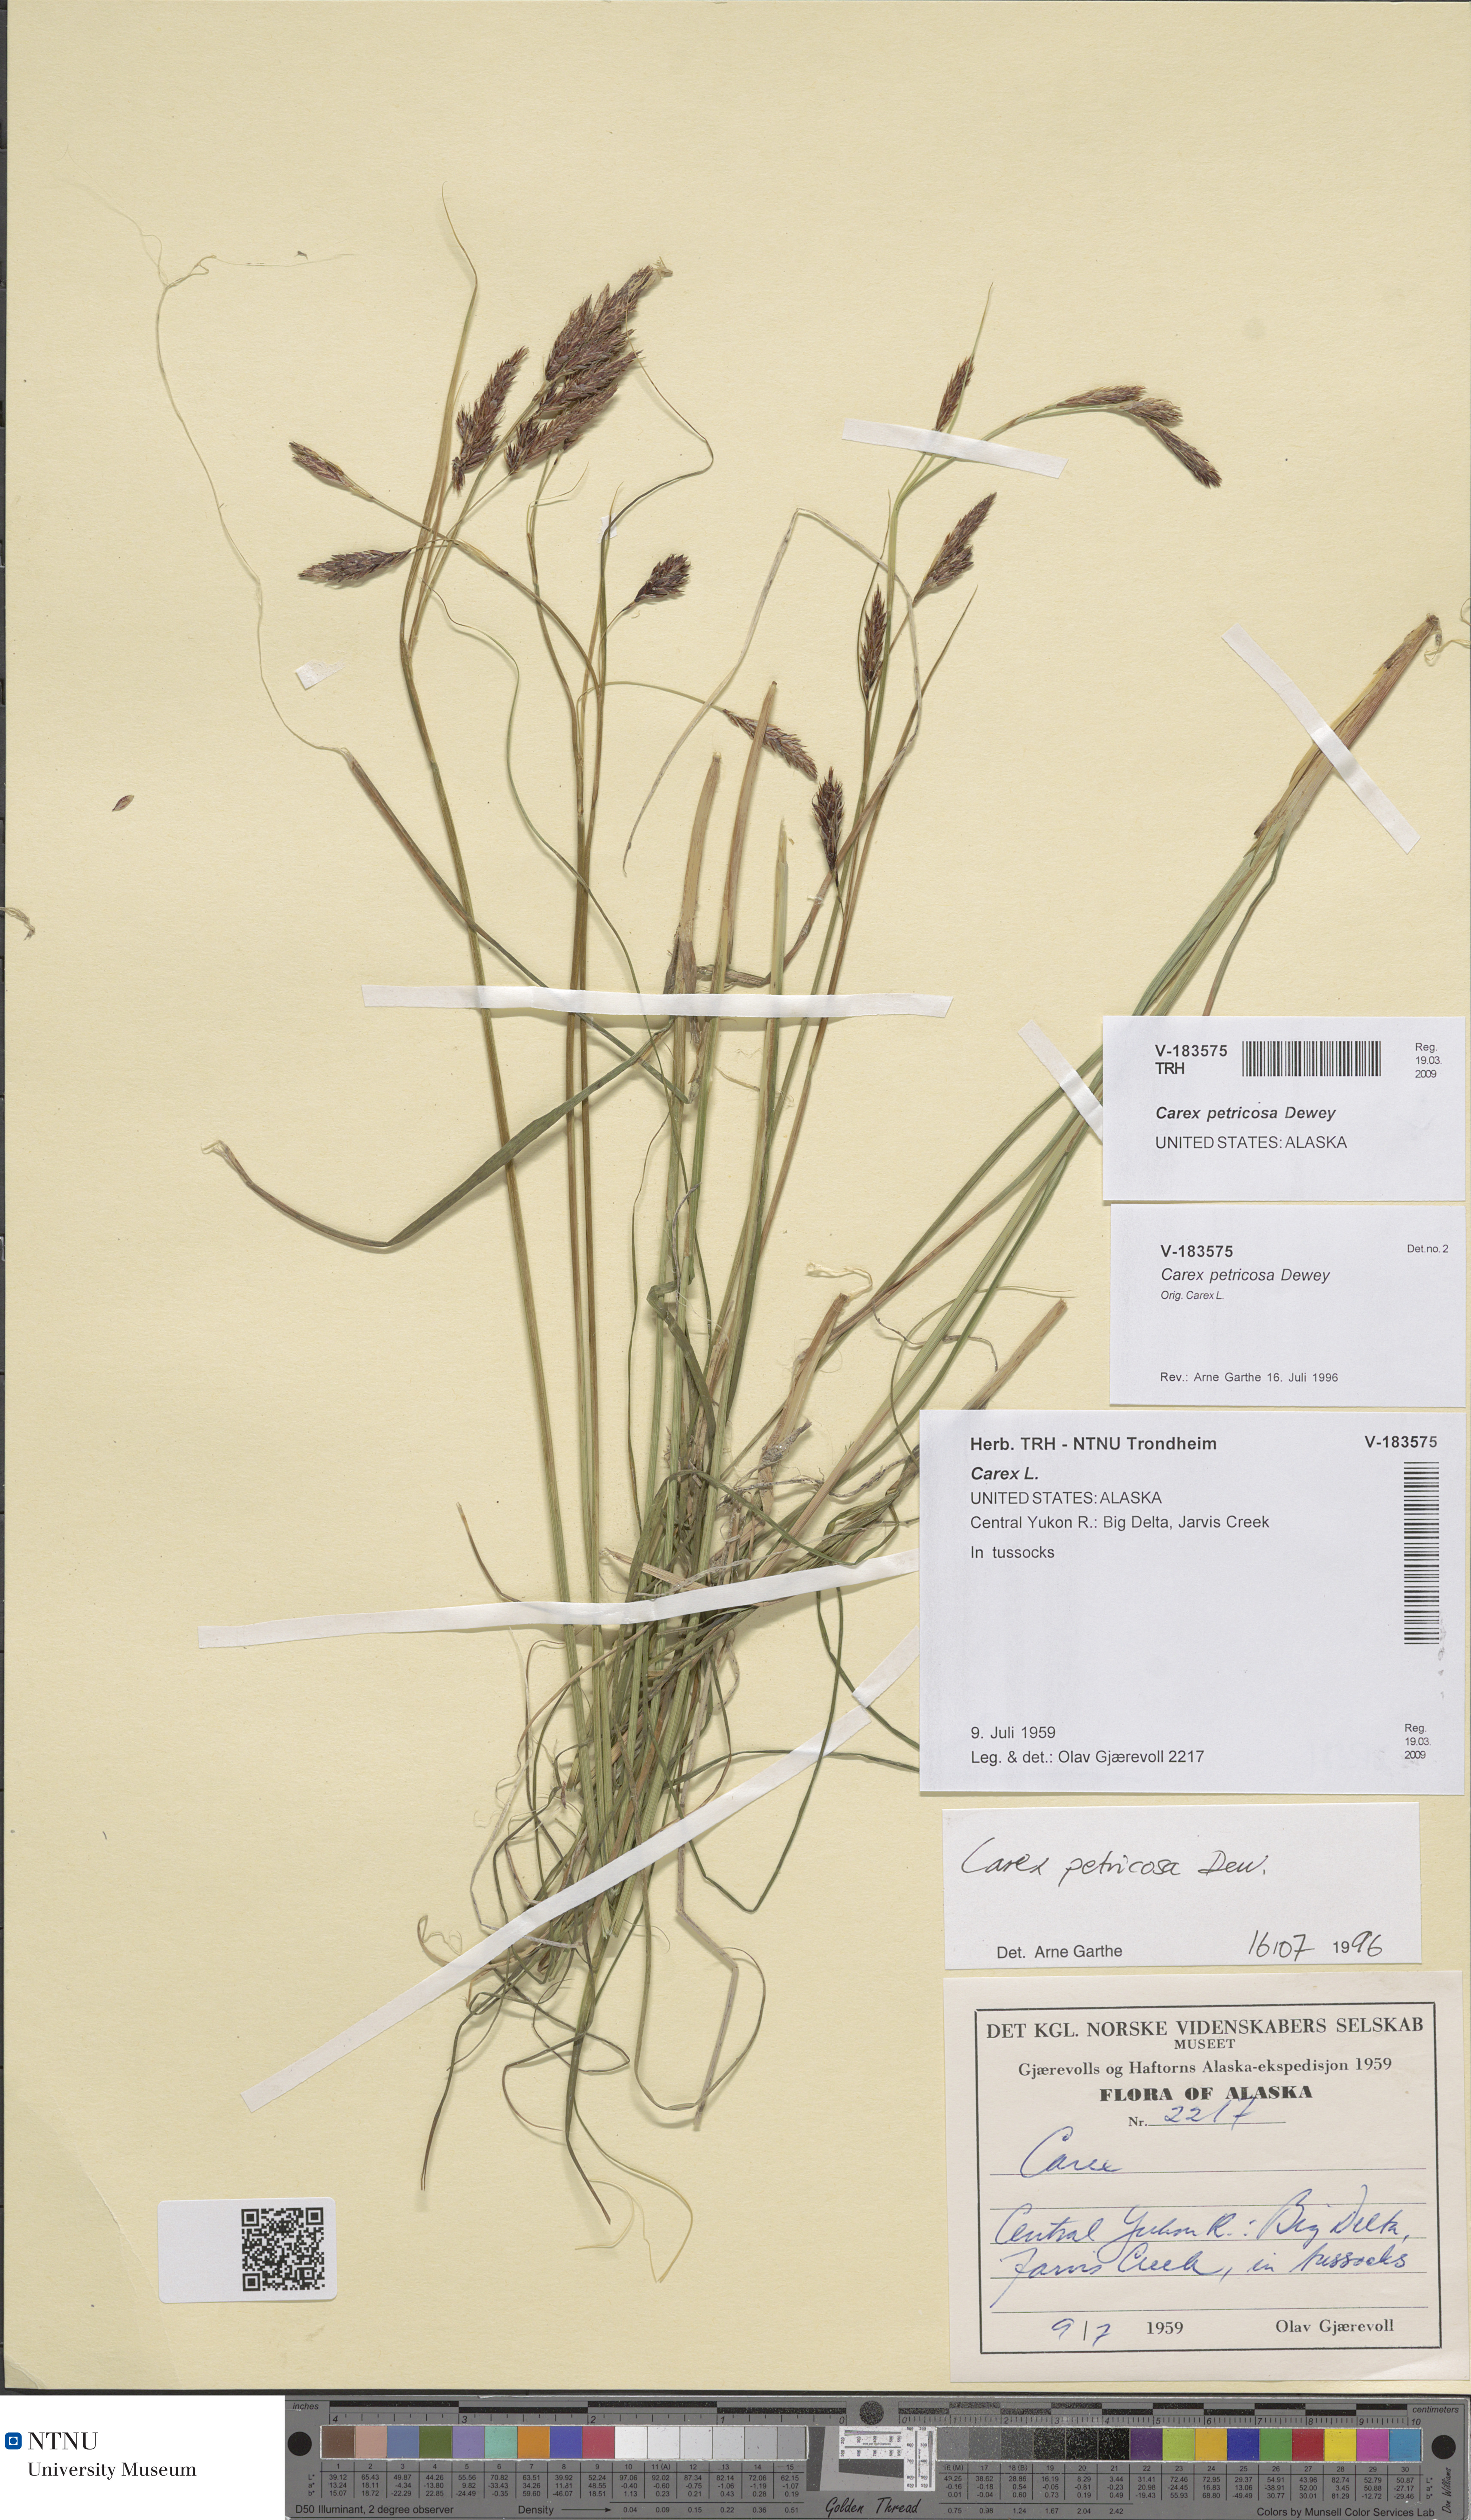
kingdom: Plantae
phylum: Tracheophyta
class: Liliopsida
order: Poales
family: Cyperaceae
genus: Carex
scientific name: Carex petricosa
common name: Rock sedge
